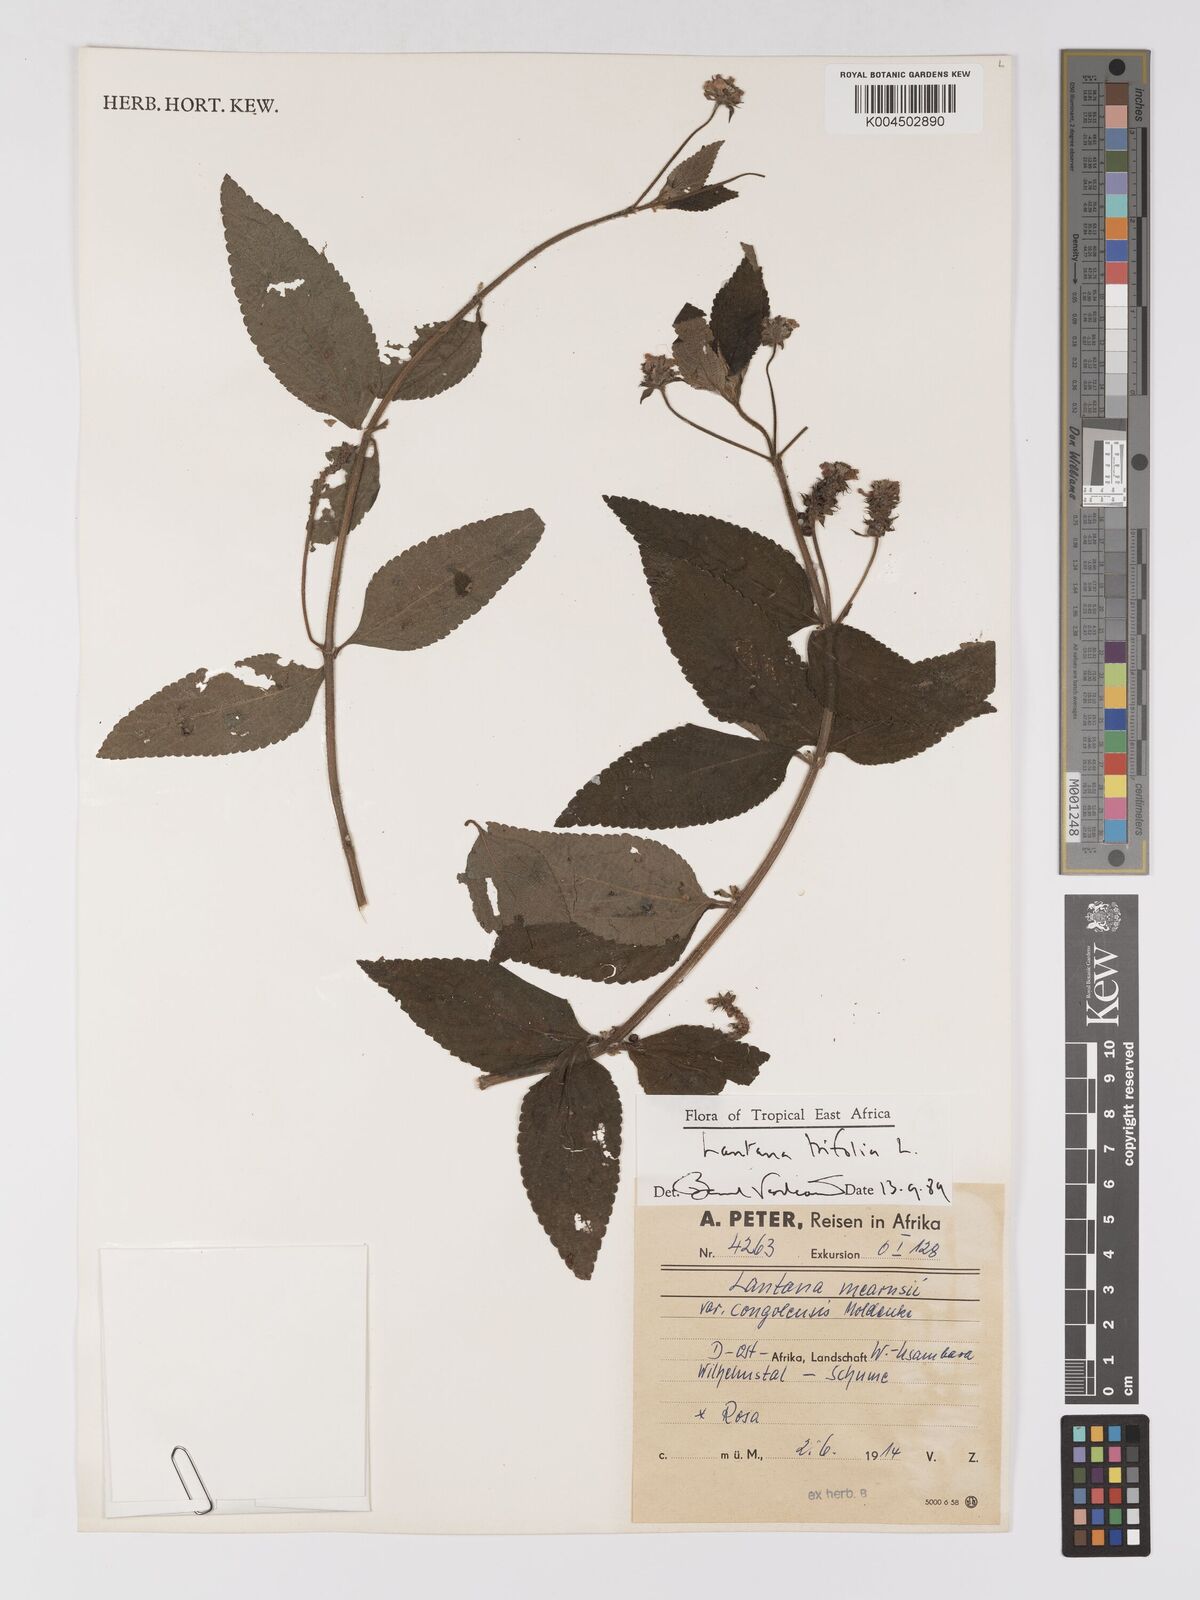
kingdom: Plantae
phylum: Tracheophyta
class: Magnoliopsida
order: Lamiales
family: Verbenaceae
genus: Lantana
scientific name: Lantana trifolia
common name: Sweet-sage
